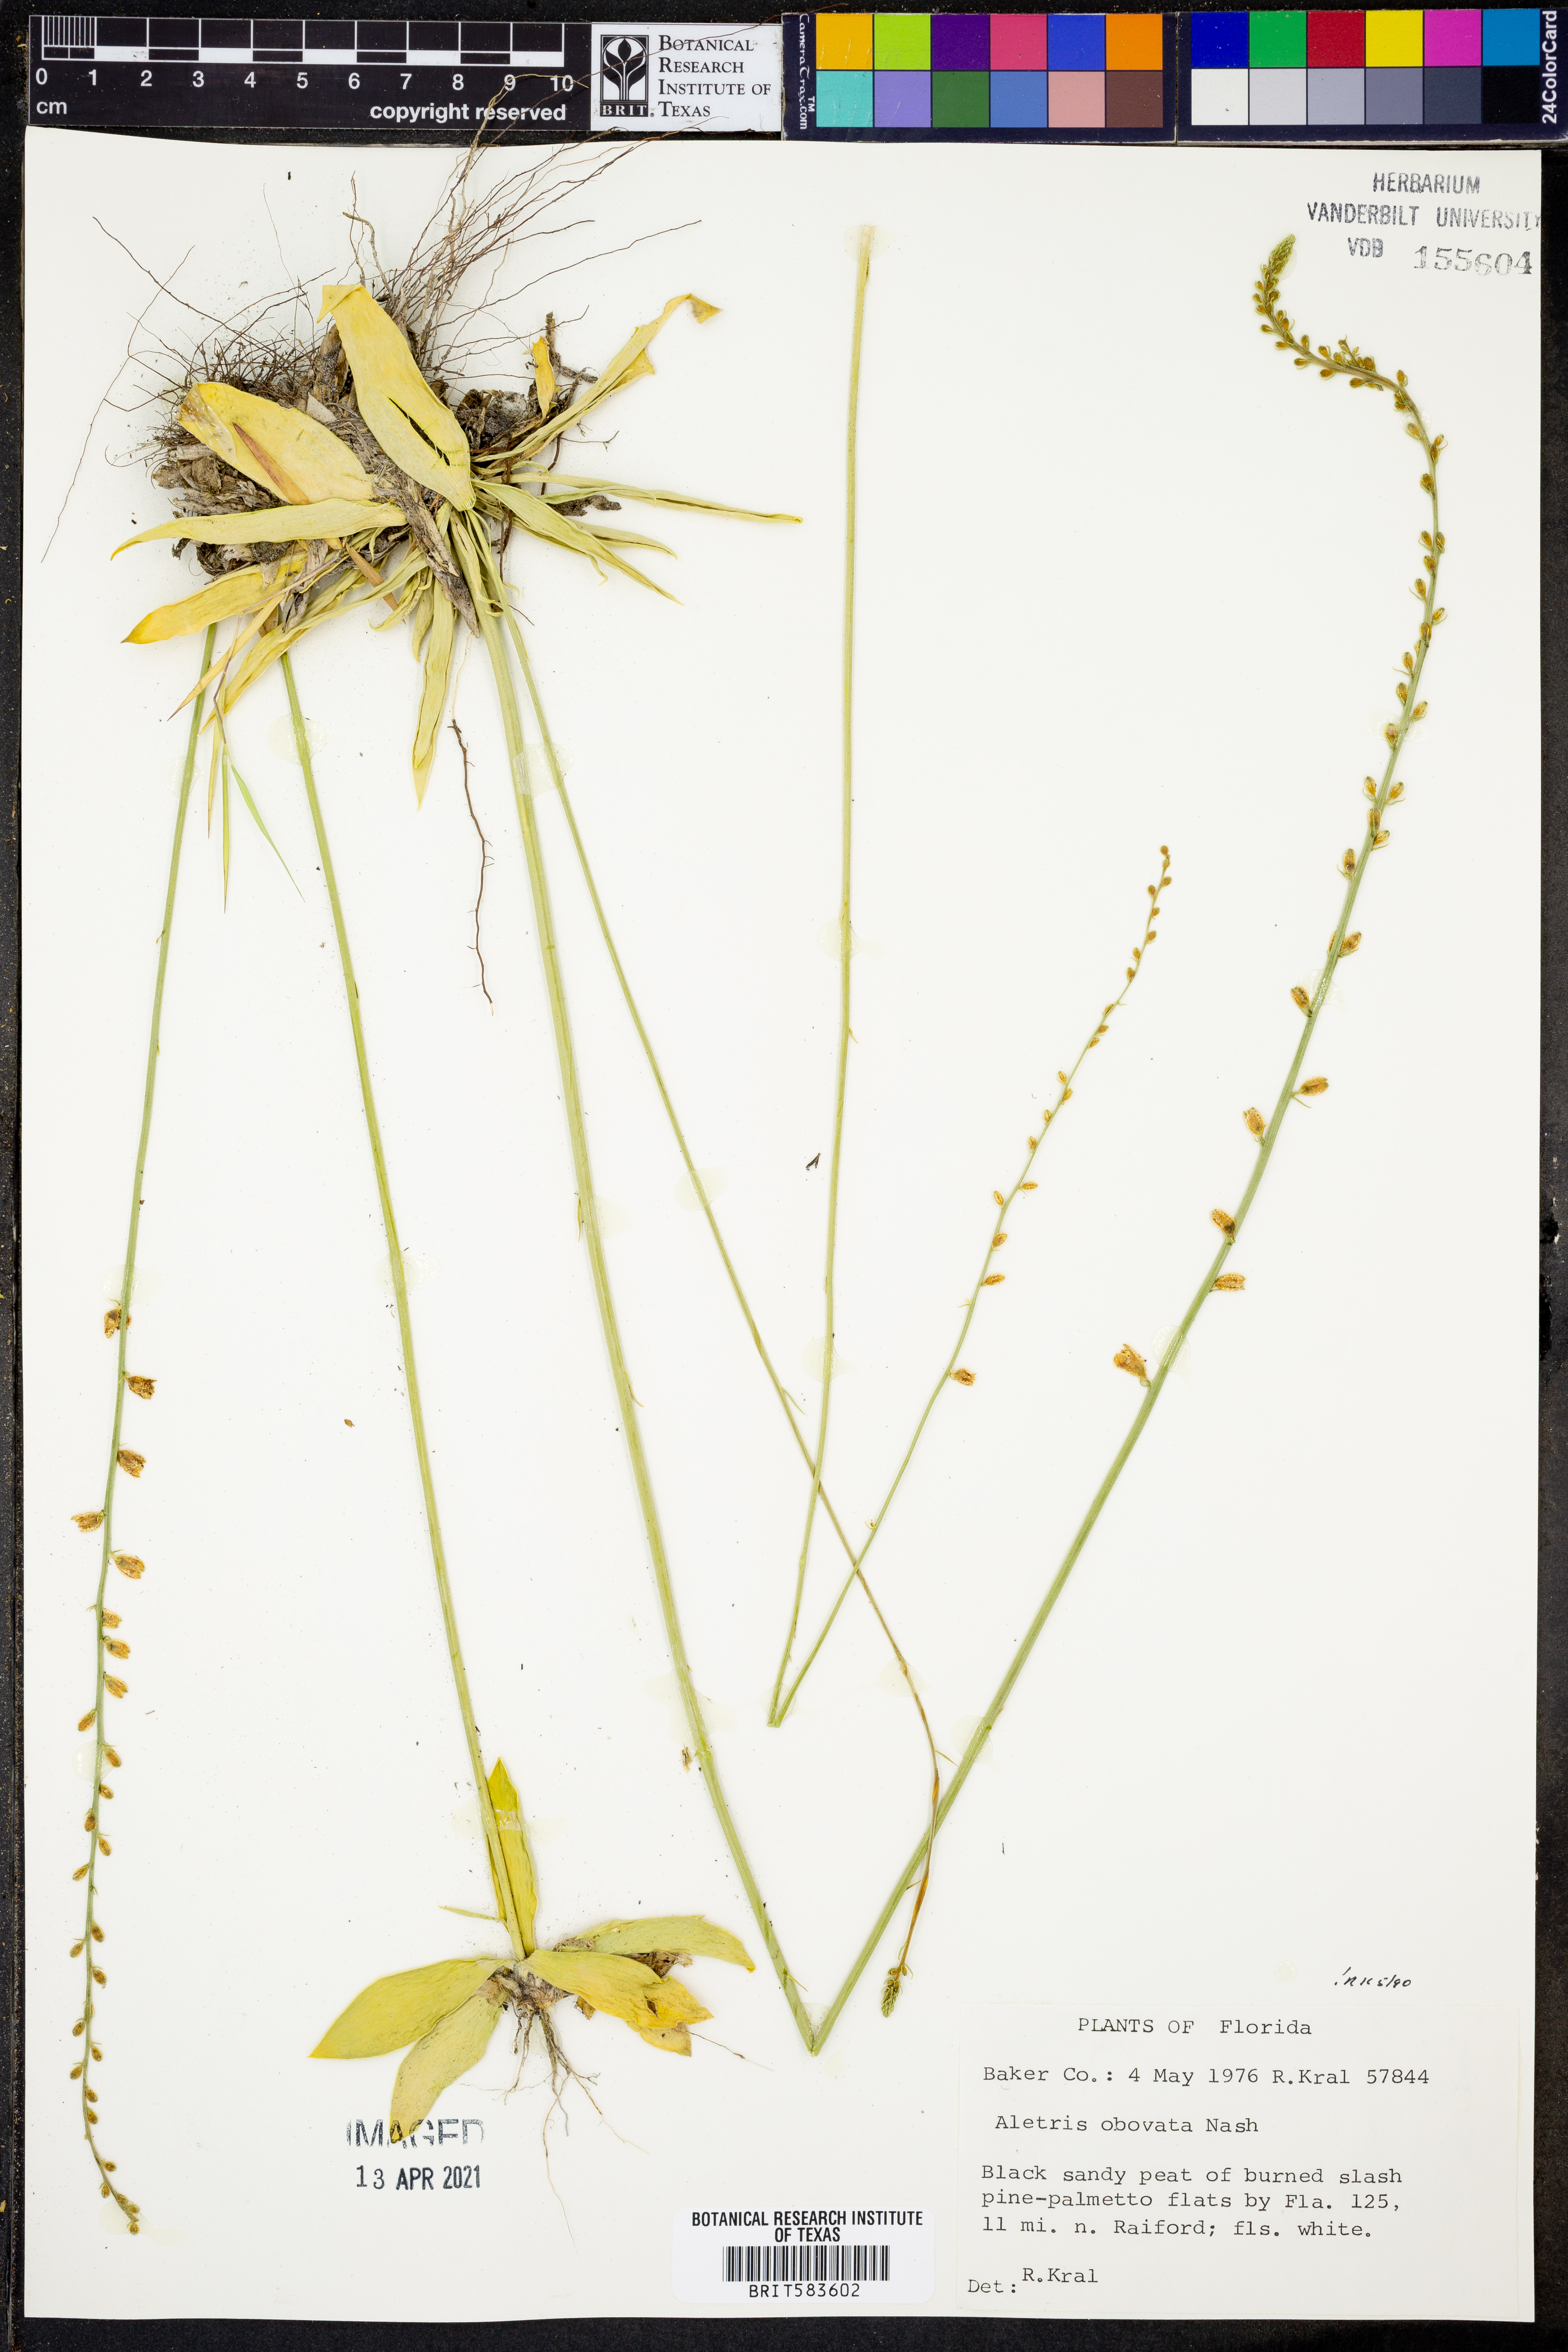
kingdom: Plantae
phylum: Tracheophyta
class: Liliopsida
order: Dioscoreales
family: Nartheciaceae
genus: Aletris
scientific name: Aletris obovata
